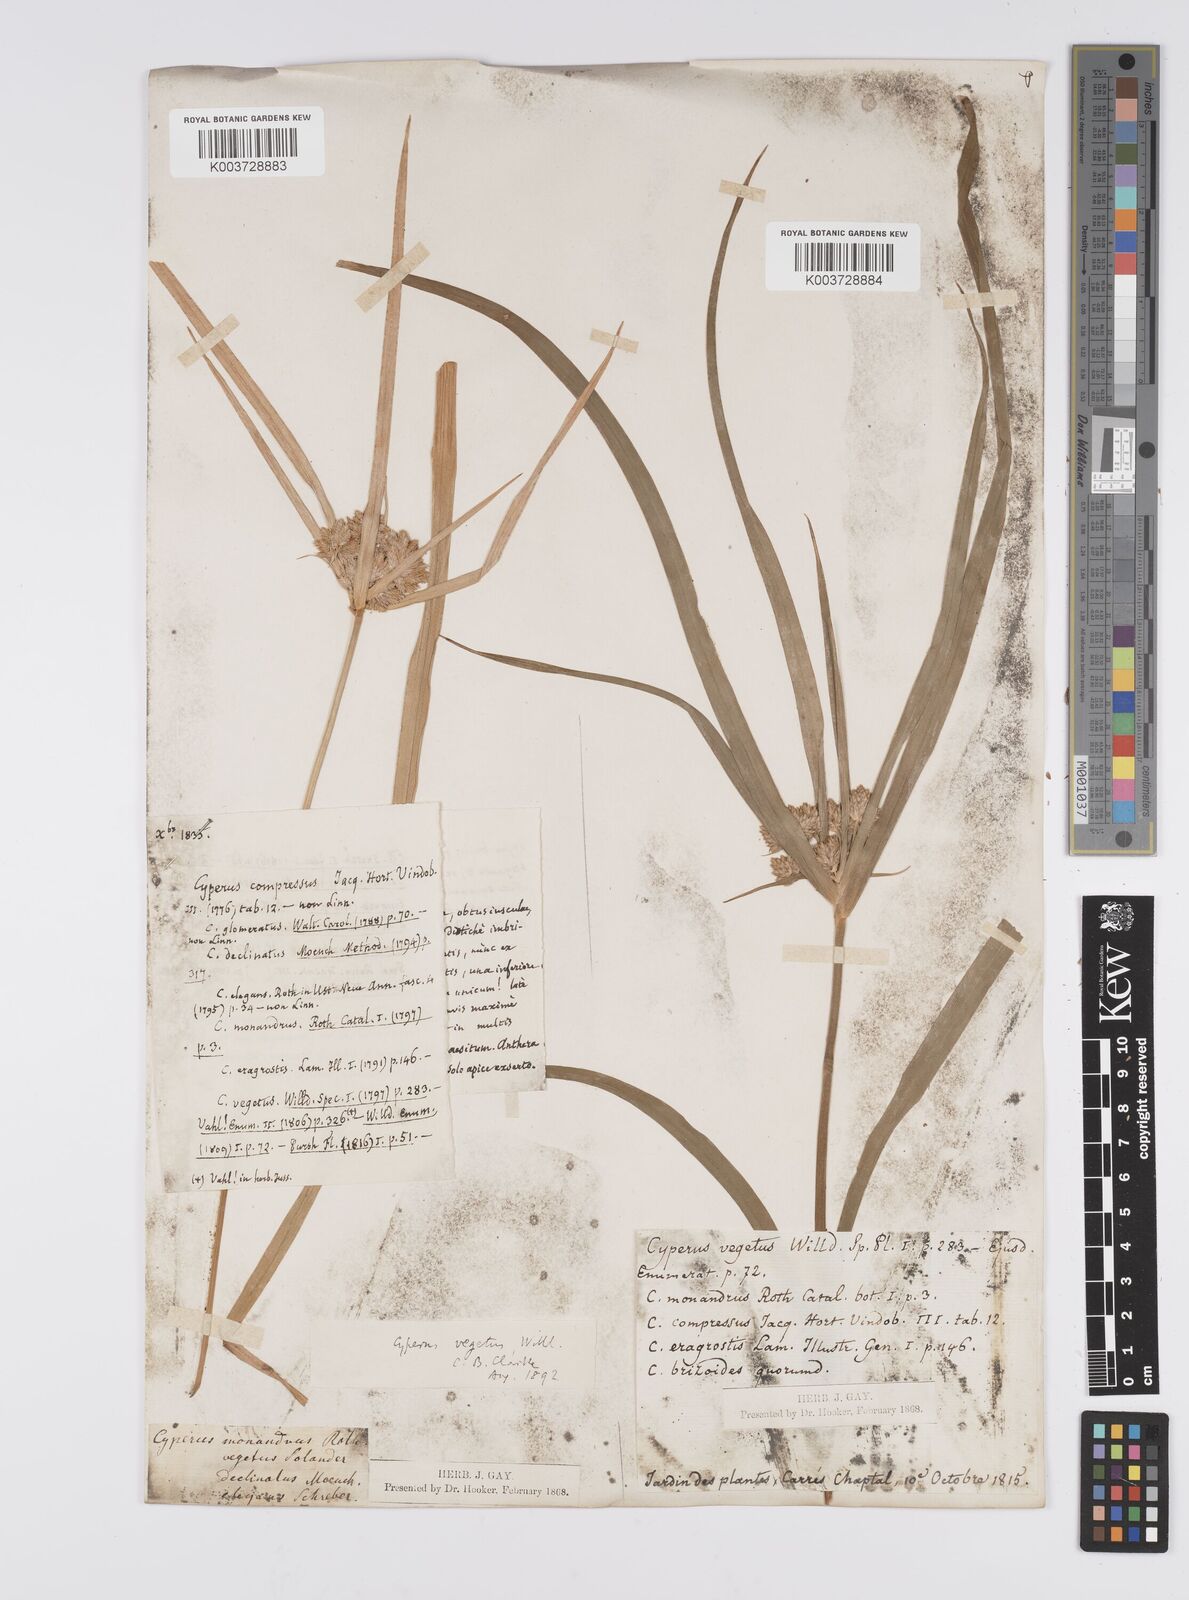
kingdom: Plantae
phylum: Tracheophyta
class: Liliopsida
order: Poales
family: Cyperaceae
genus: Cyperus
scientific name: Cyperus eragrostis
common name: Tall flatsedge
